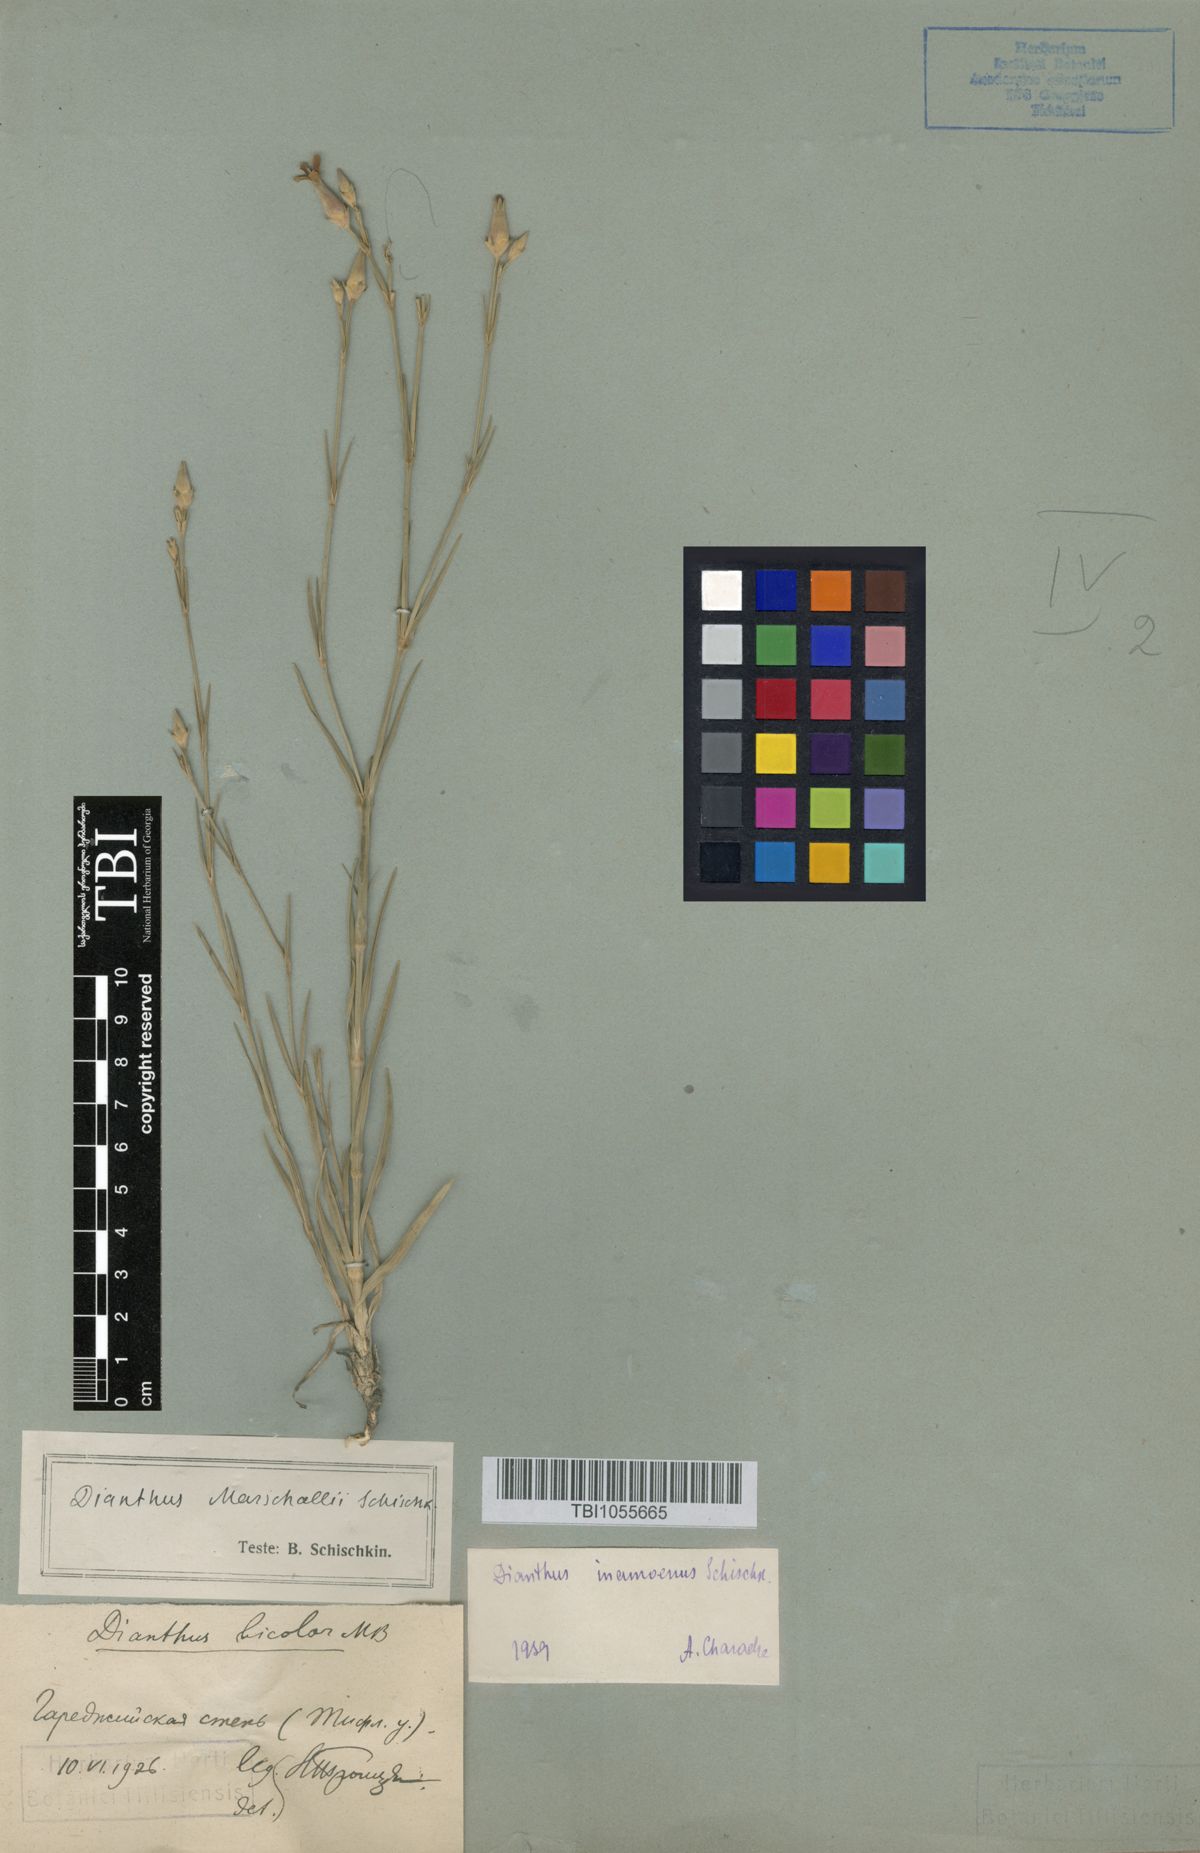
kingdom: Plantae
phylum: Tracheophyta
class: Magnoliopsida
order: Caryophyllales
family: Caryophyllaceae
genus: Dianthus
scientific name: Dianthus inamoenus
